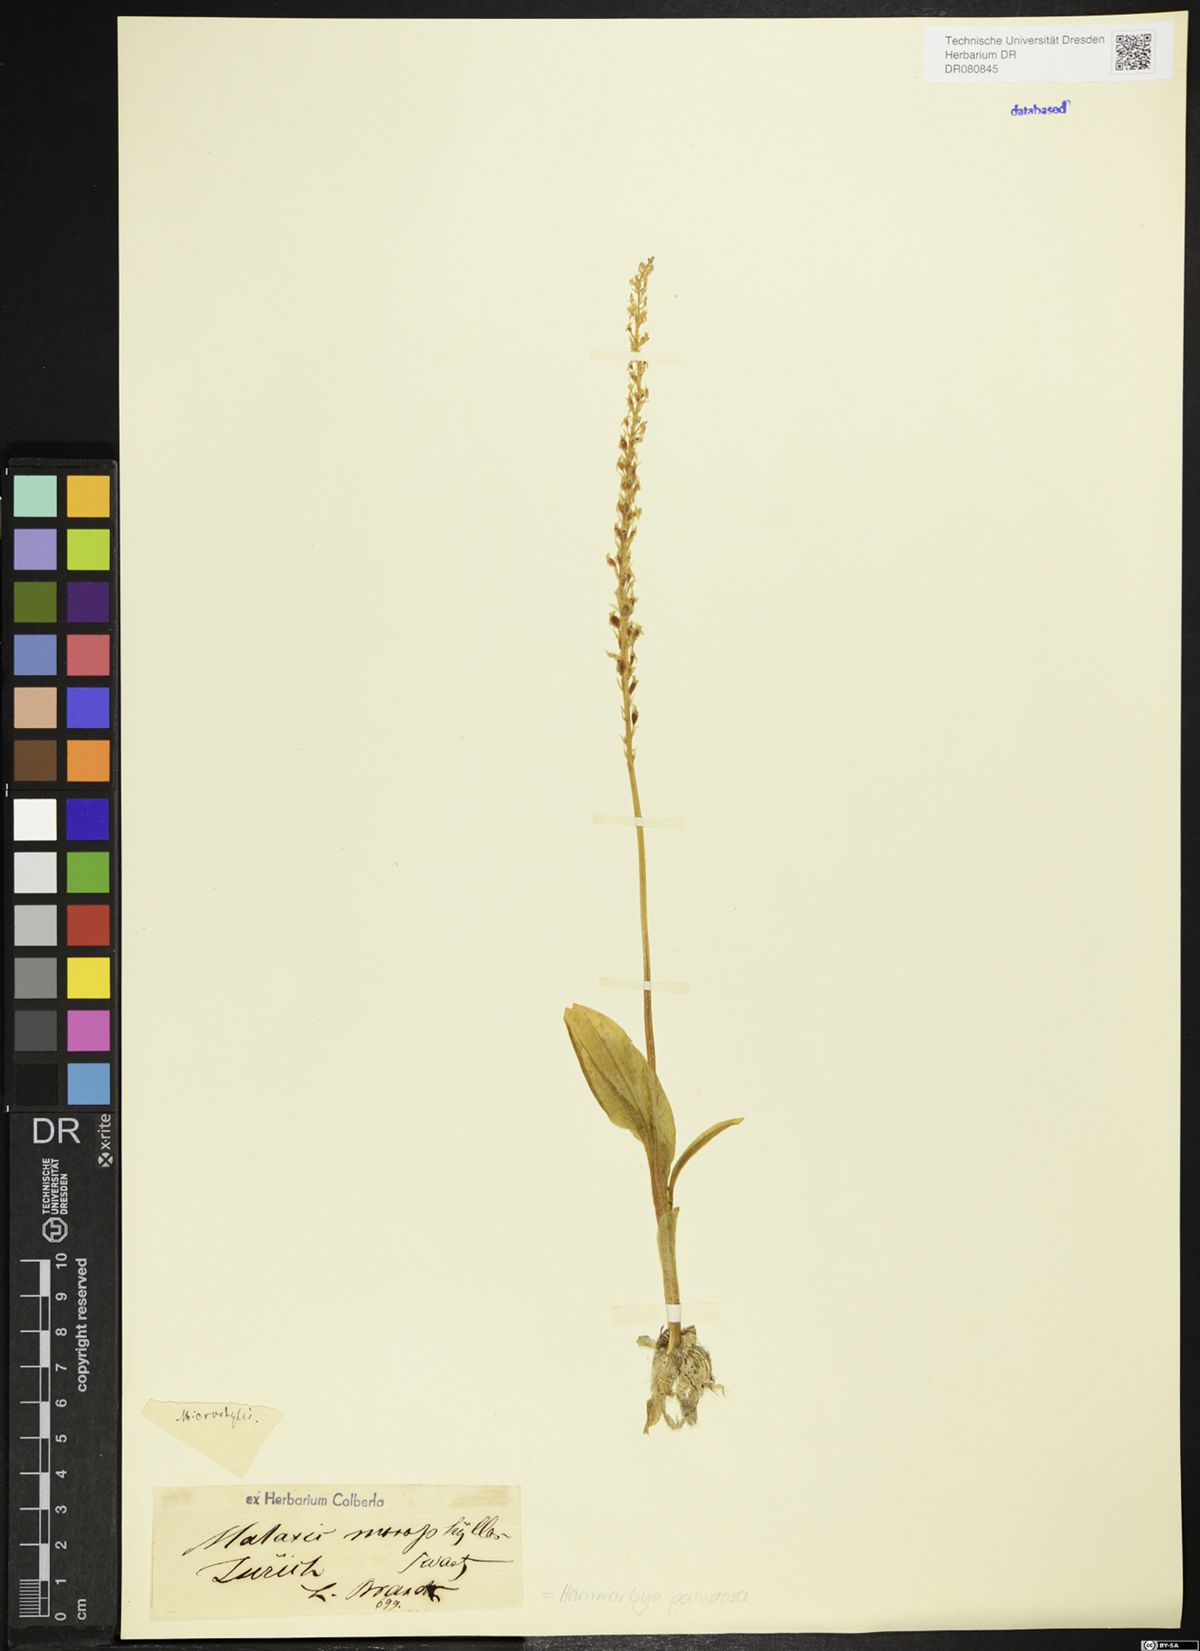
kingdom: Plantae
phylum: Tracheophyta
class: Liliopsida
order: Asparagales
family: Orchidaceae
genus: Hammarbya
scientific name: Hammarbya paludosa
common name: Bog orchid
